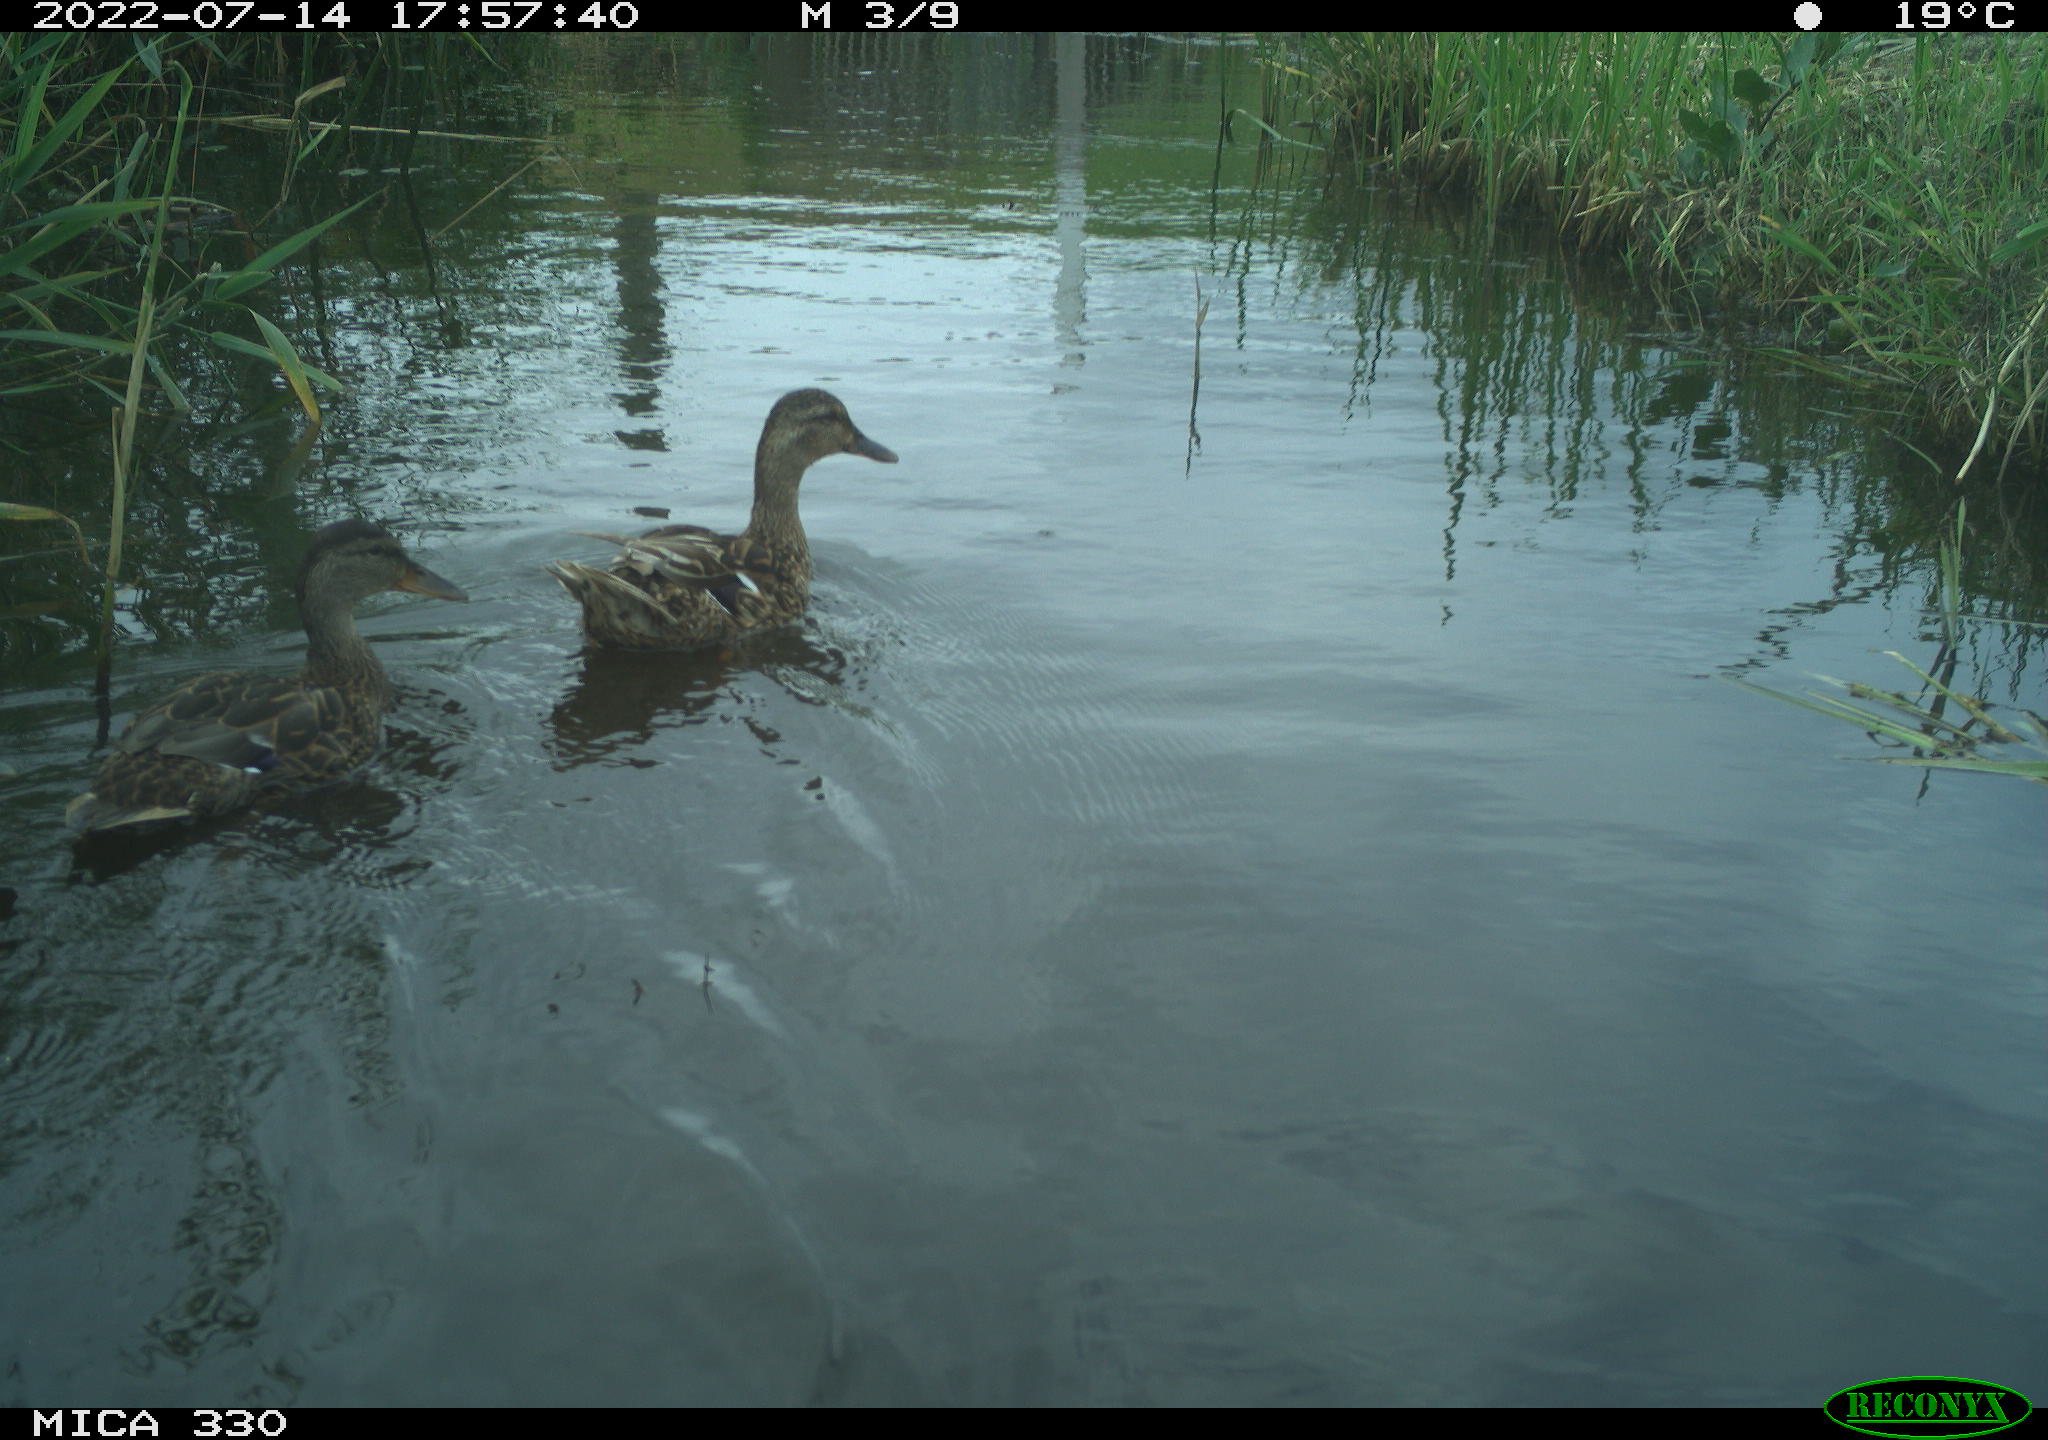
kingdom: Animalia
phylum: Chordata
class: Aves
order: Anseriformes
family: Anatidae
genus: Mareca
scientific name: Mareca strepera
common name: Gadwall
